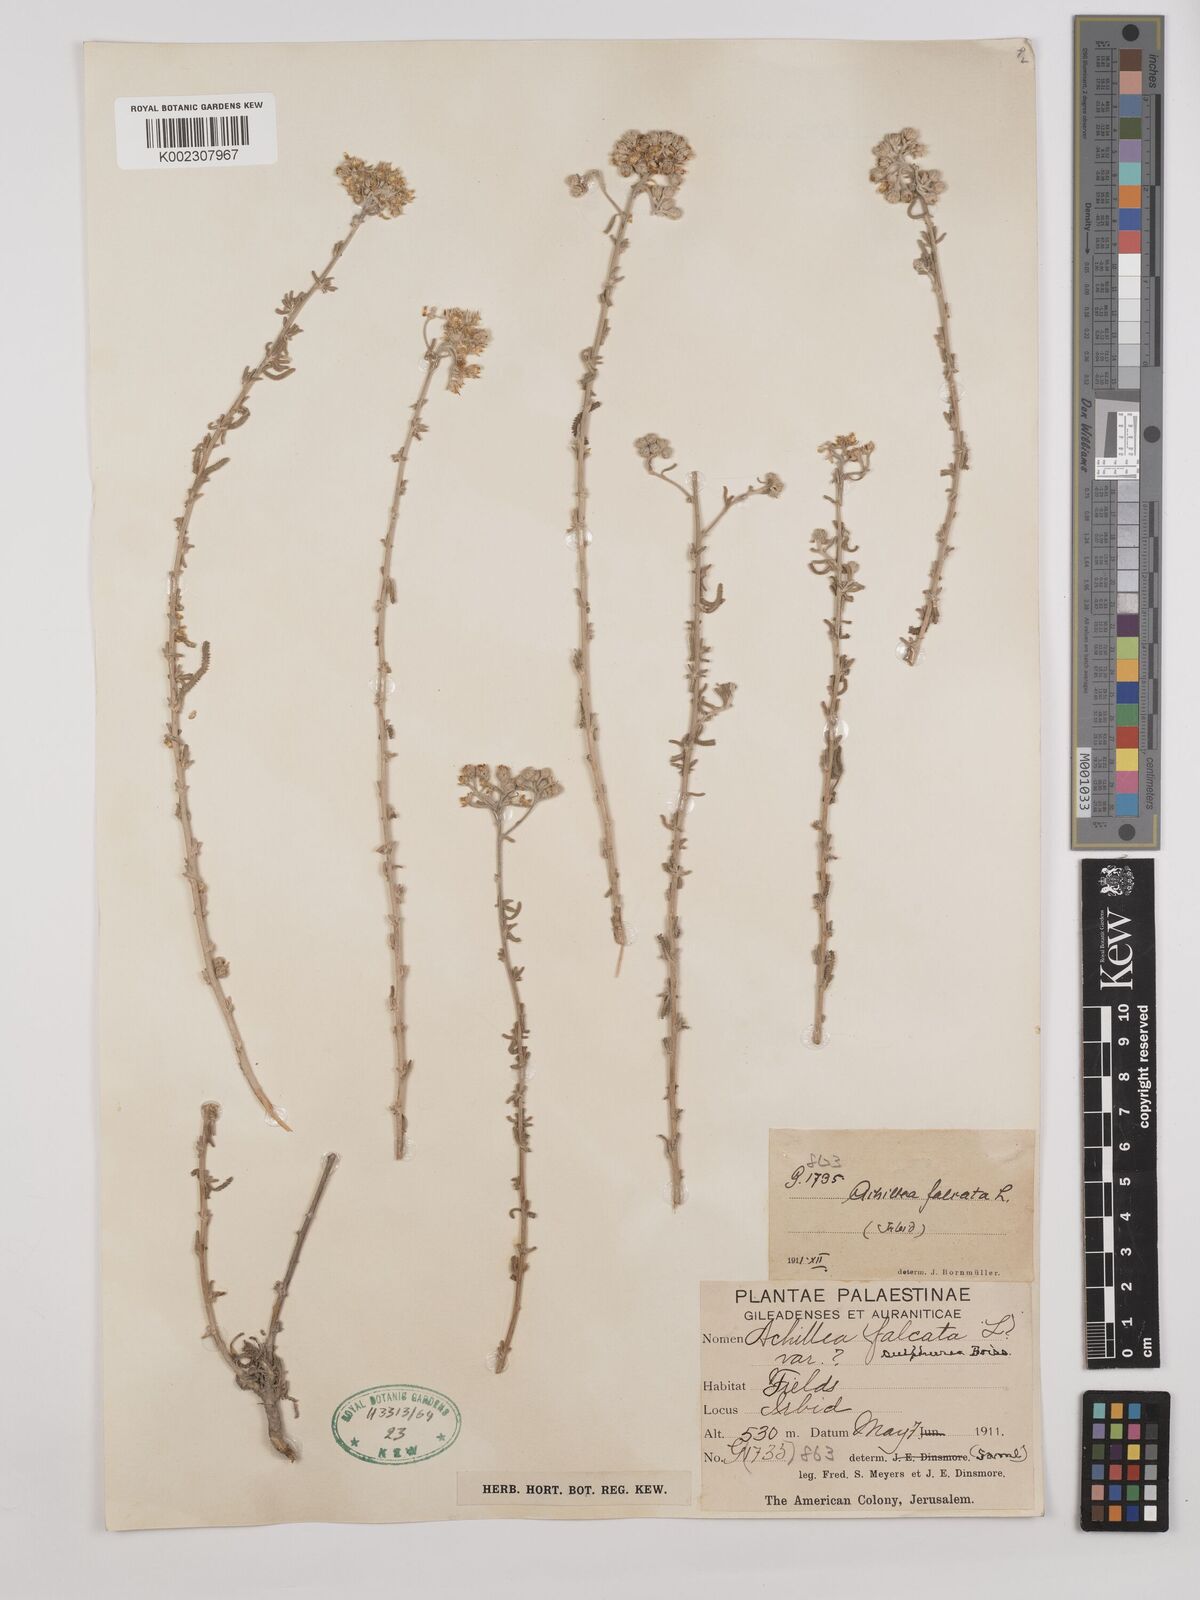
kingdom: Plantae
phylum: Tracheophyta
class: Magnoliopsida
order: Asterales
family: Asteraceae
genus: Achillea
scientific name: Achillea falcata
